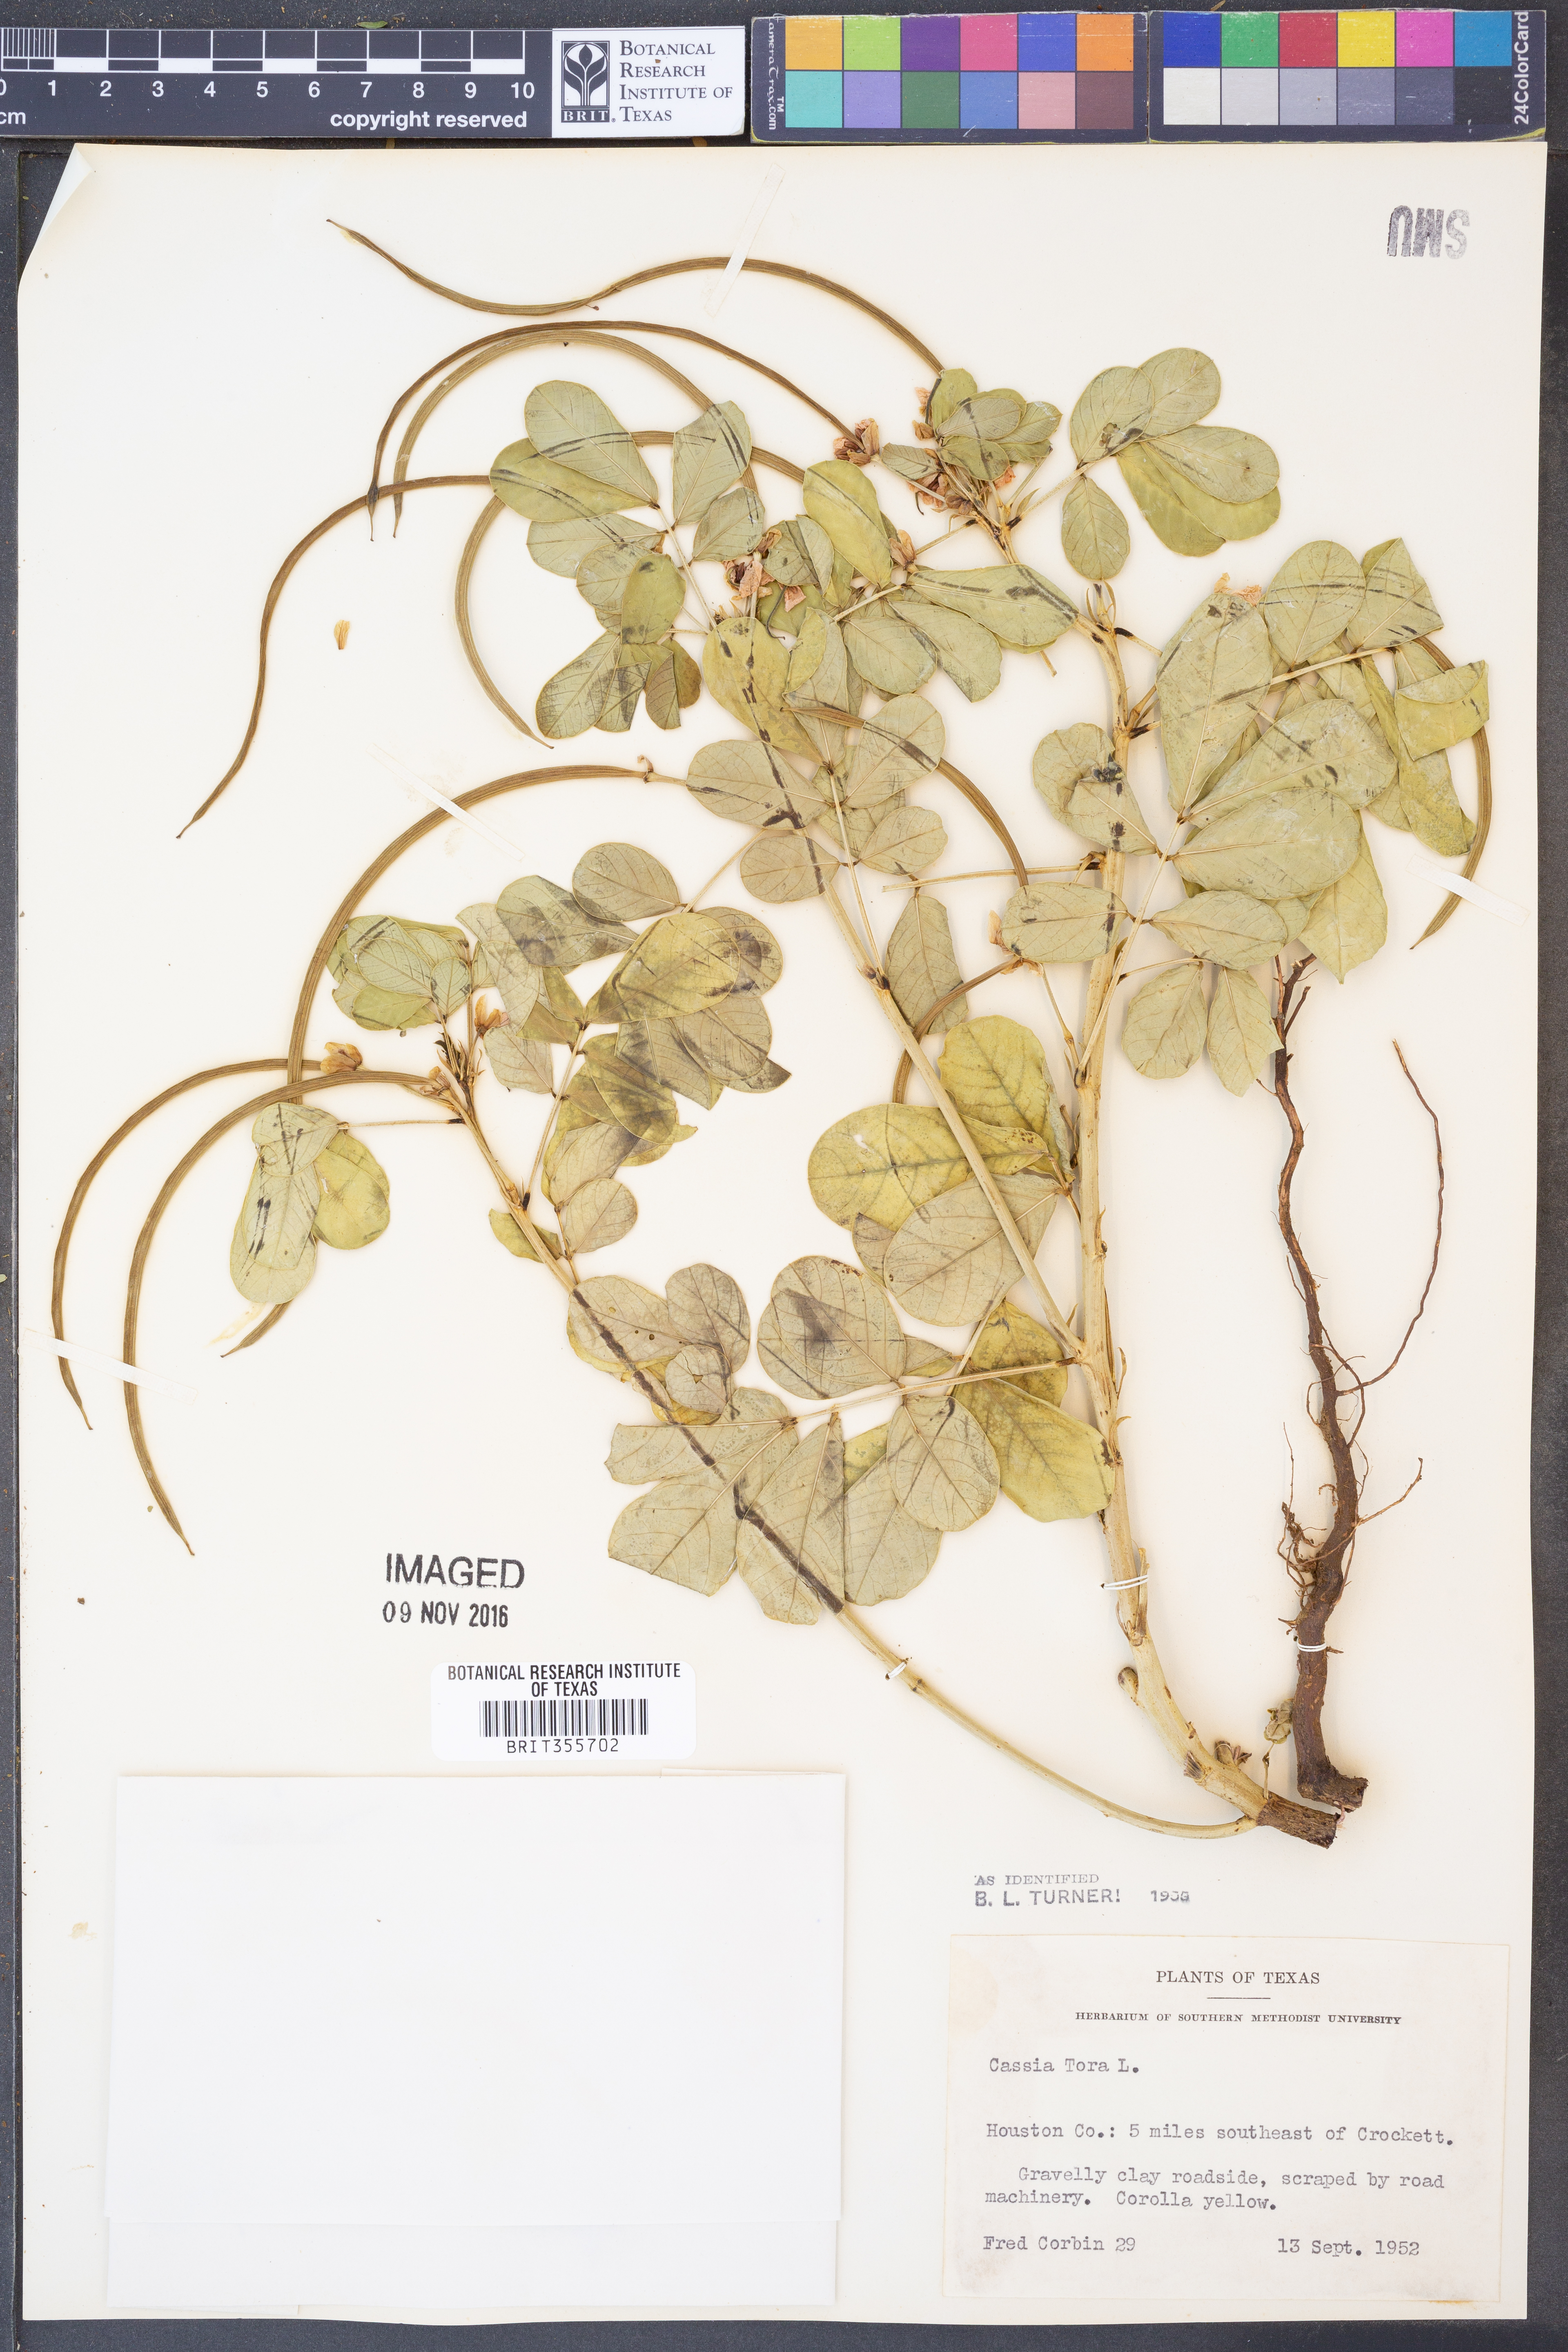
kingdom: Plantae
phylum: Tracheophyta
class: Magnoliopsida
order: Fabales
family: Fabaceae
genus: Senna
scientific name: Senna tora
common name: Sickle senna
